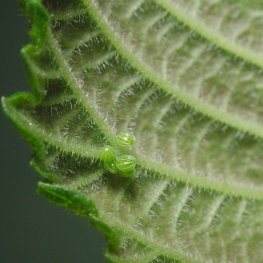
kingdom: Animalia
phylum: Arthropoda
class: Insecta
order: Lepidoptera
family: Nymphalidae
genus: Polygonia
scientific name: Polygonia interrogationis
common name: Question Mark
